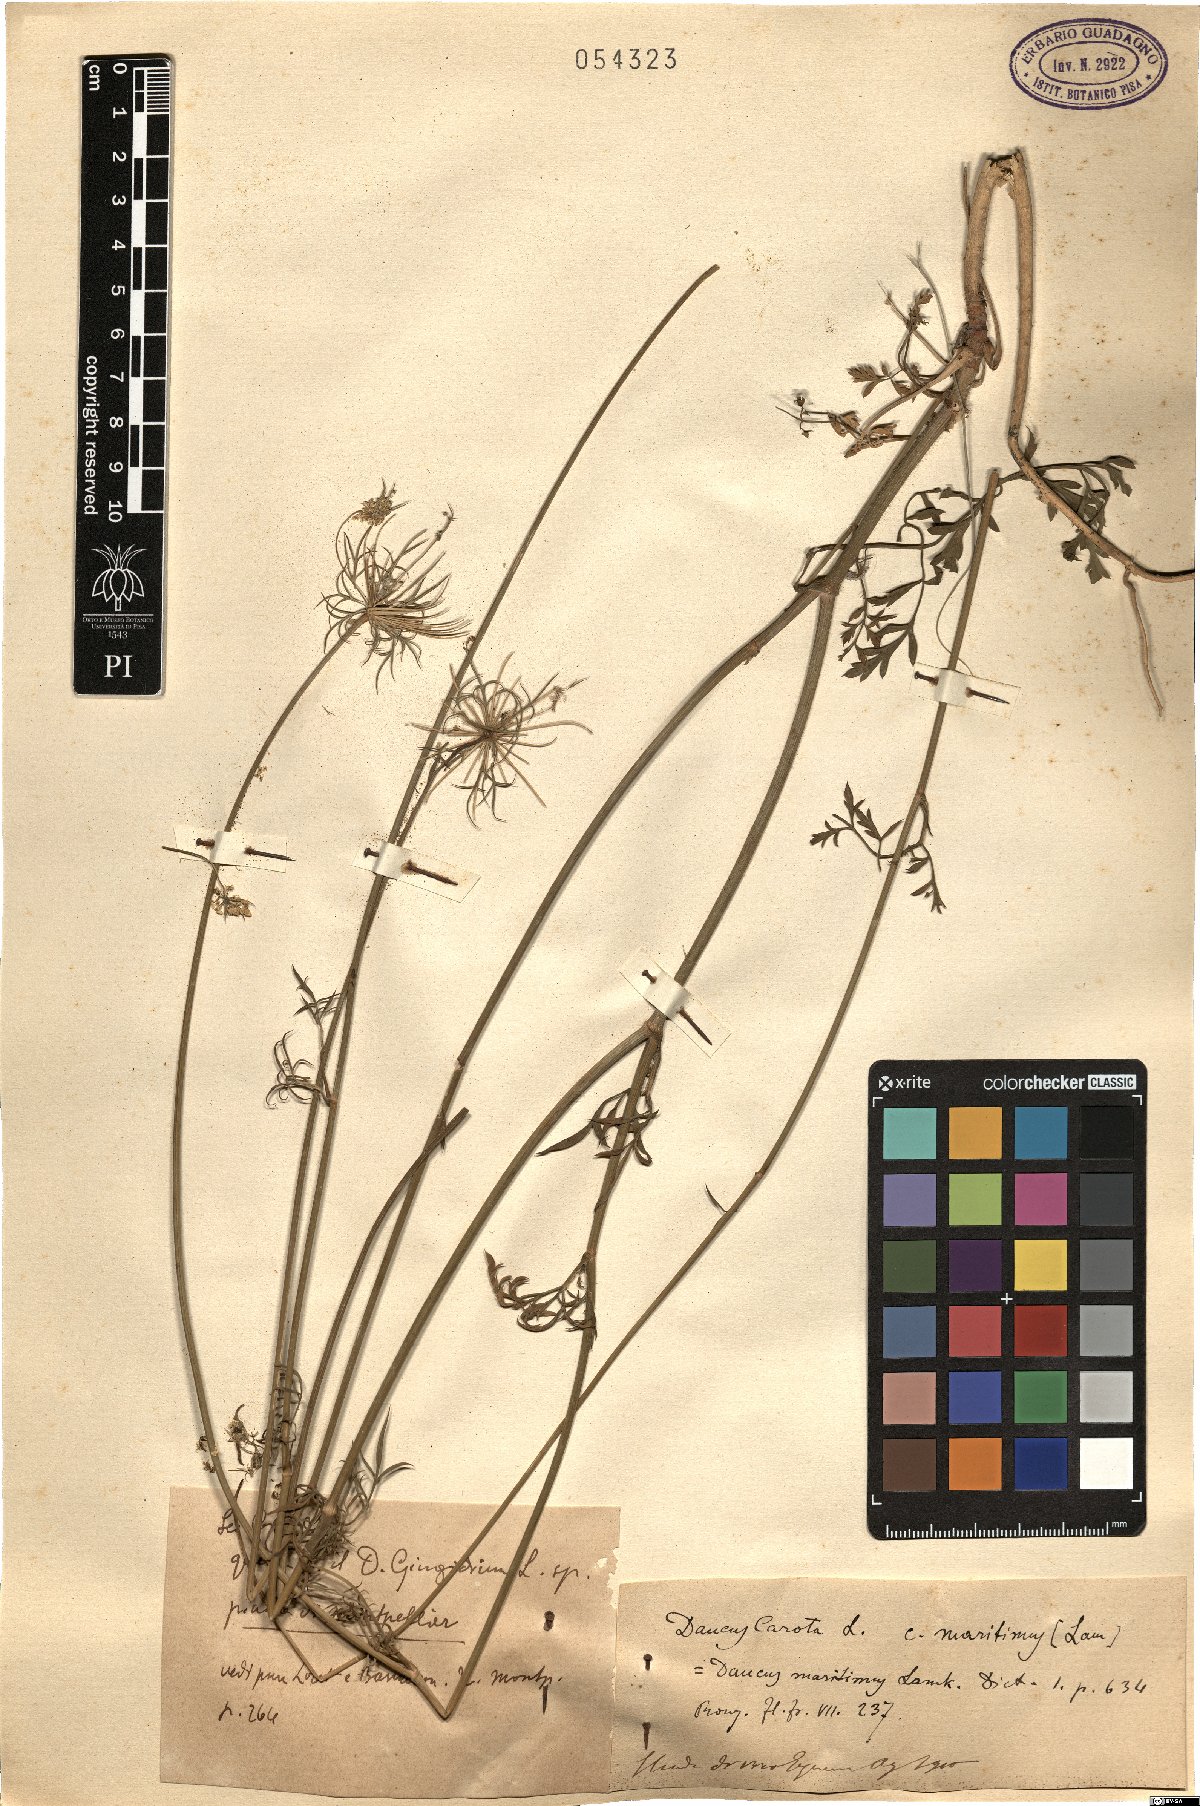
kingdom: Plantae
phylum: Tracheophyta
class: Magnoliopsida
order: Apiales
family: Apiaceae
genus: Daucus
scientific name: Daucus carota
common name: Wild carrot
